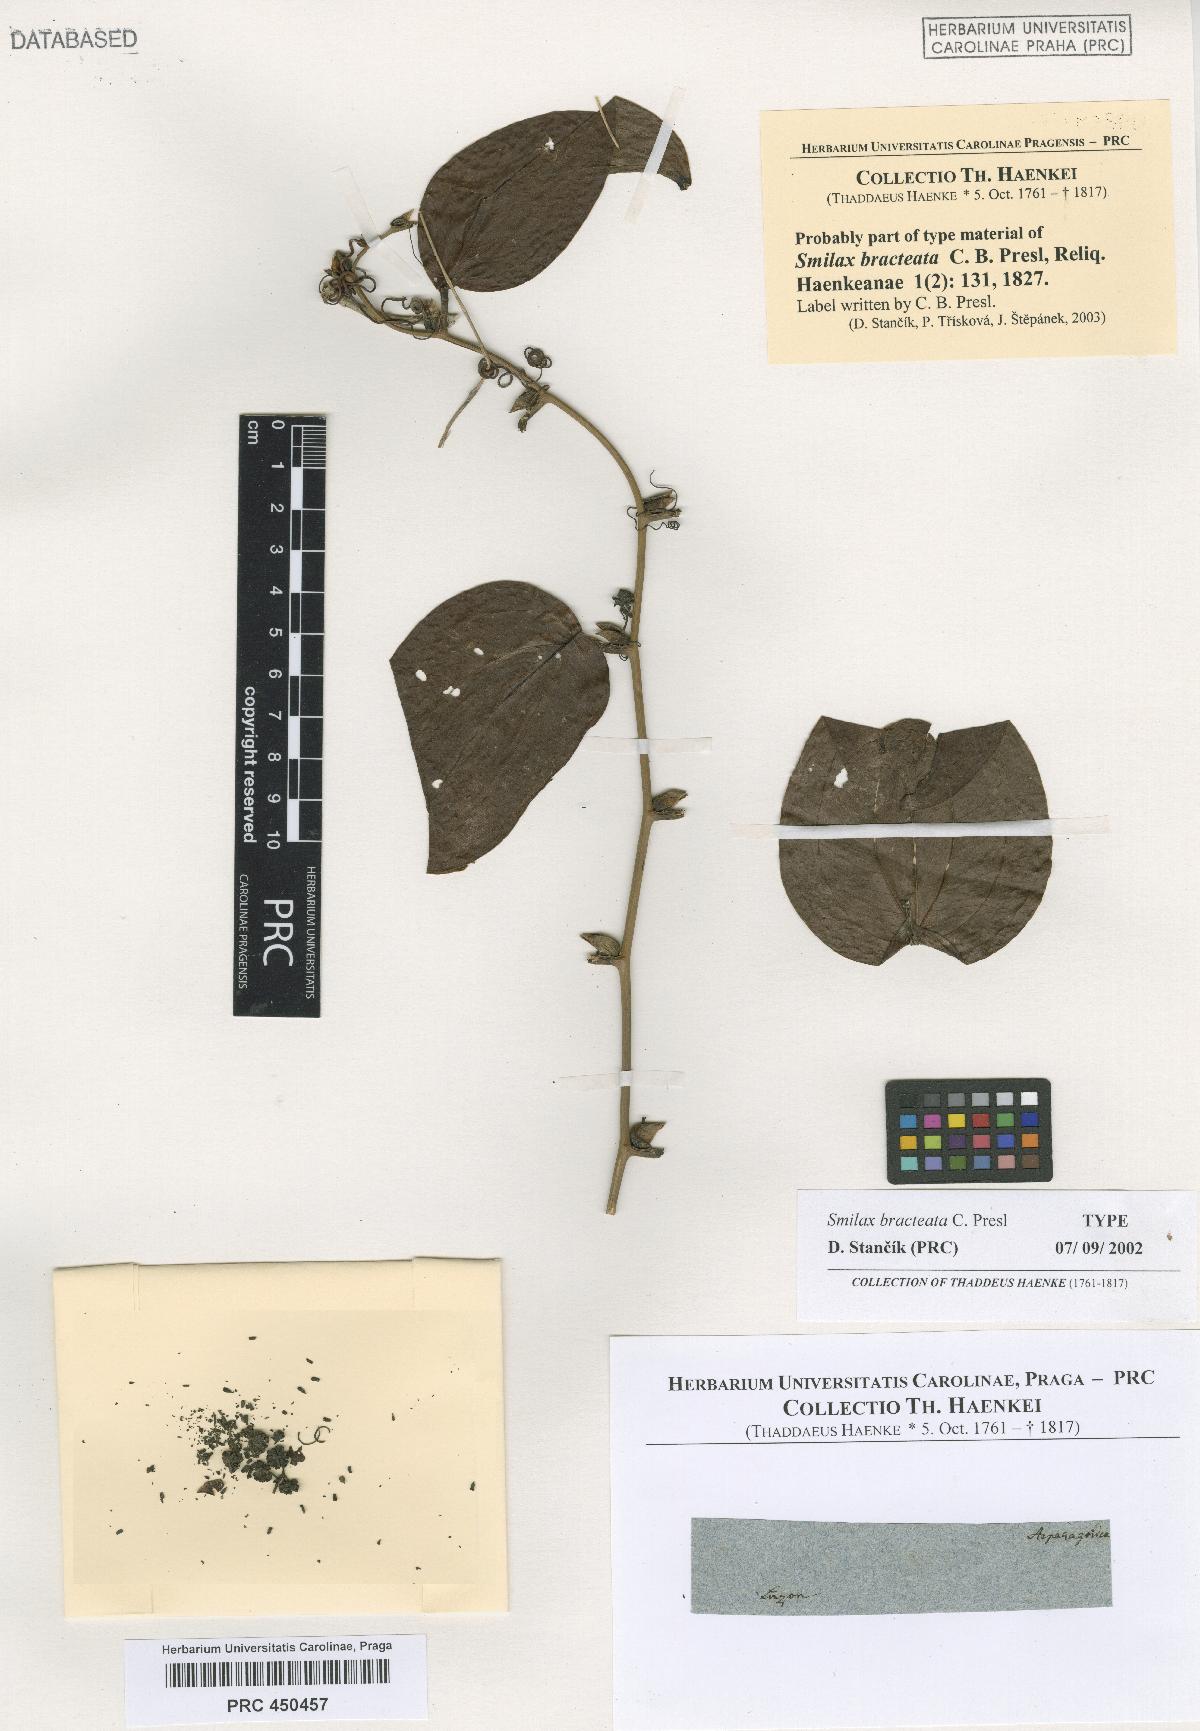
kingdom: Plantae
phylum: Tracheophyta
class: Liliopsida
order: Liliales
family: Smilacaceae
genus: Smilax
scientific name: Smilax bracteata
